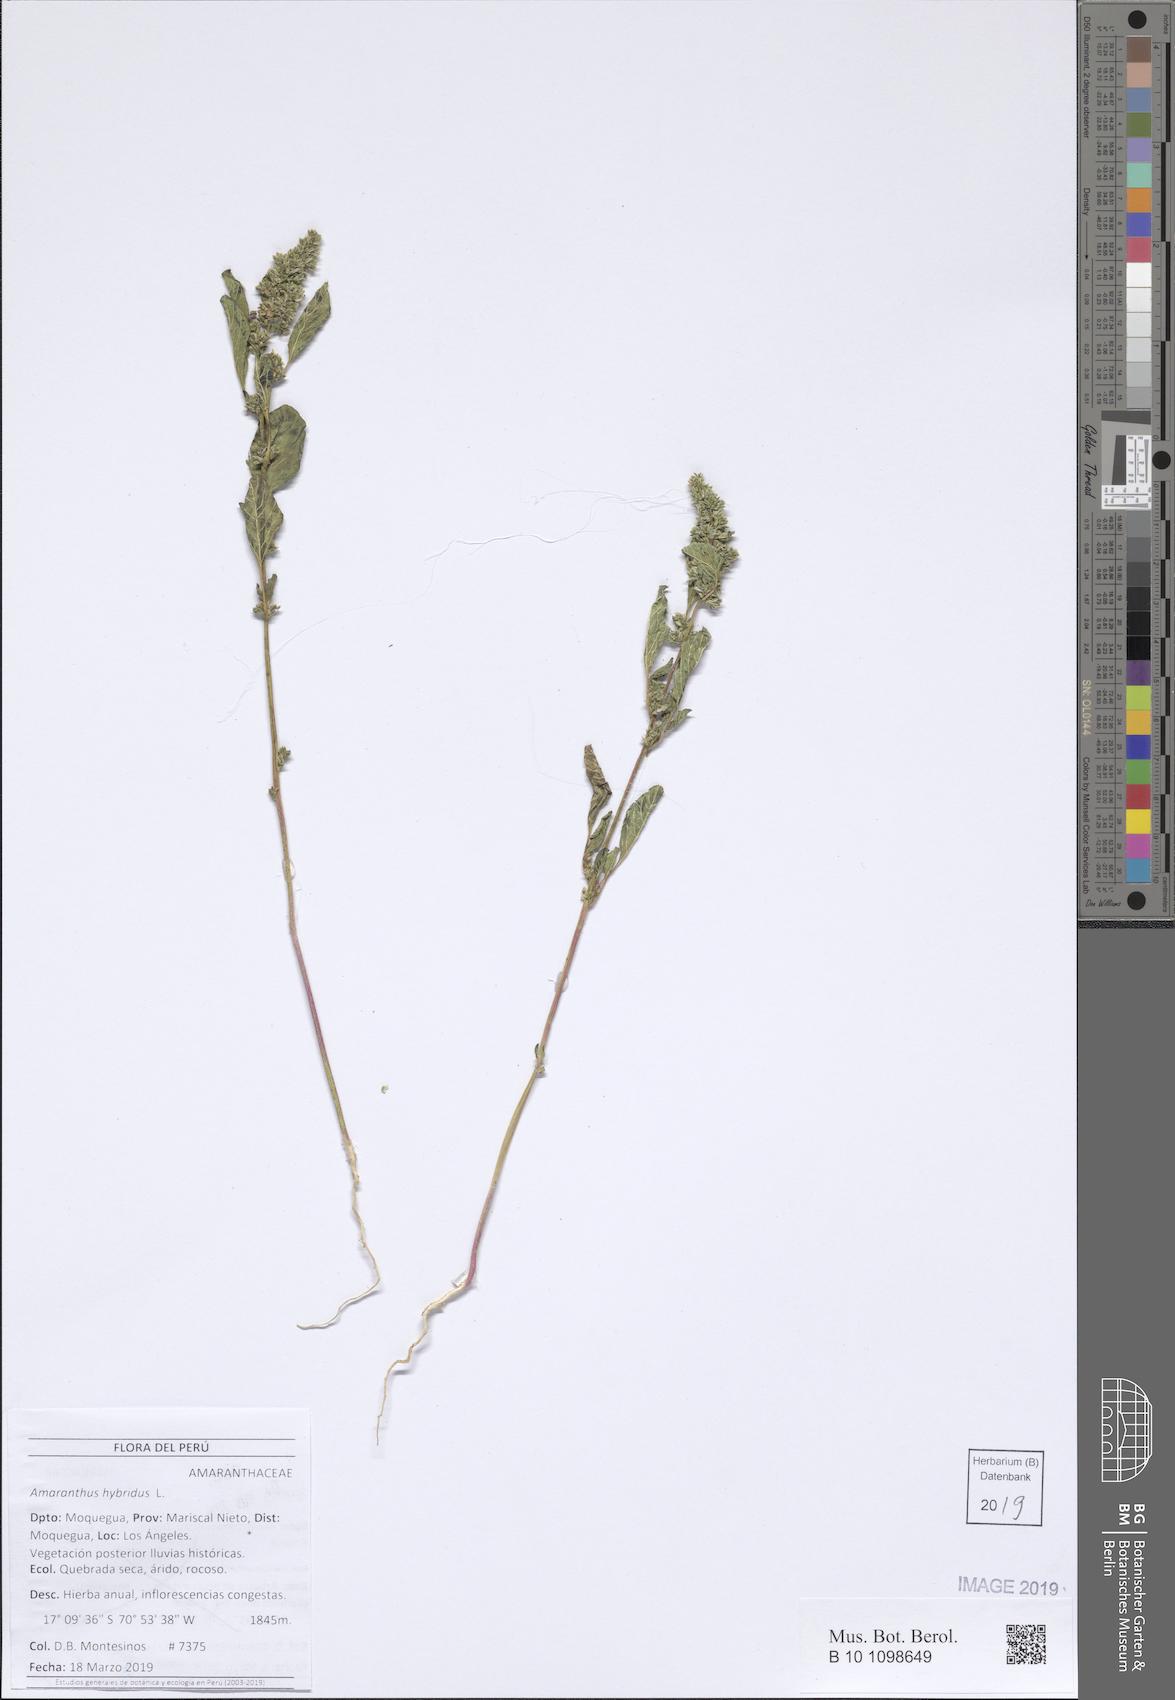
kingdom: Plantae
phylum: Tracheophyta
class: Magnoliopsida
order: Caryophyllales
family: Amaranthaceae
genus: Amaranthus
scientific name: Amaranthus hybridus
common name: Green amaranth
